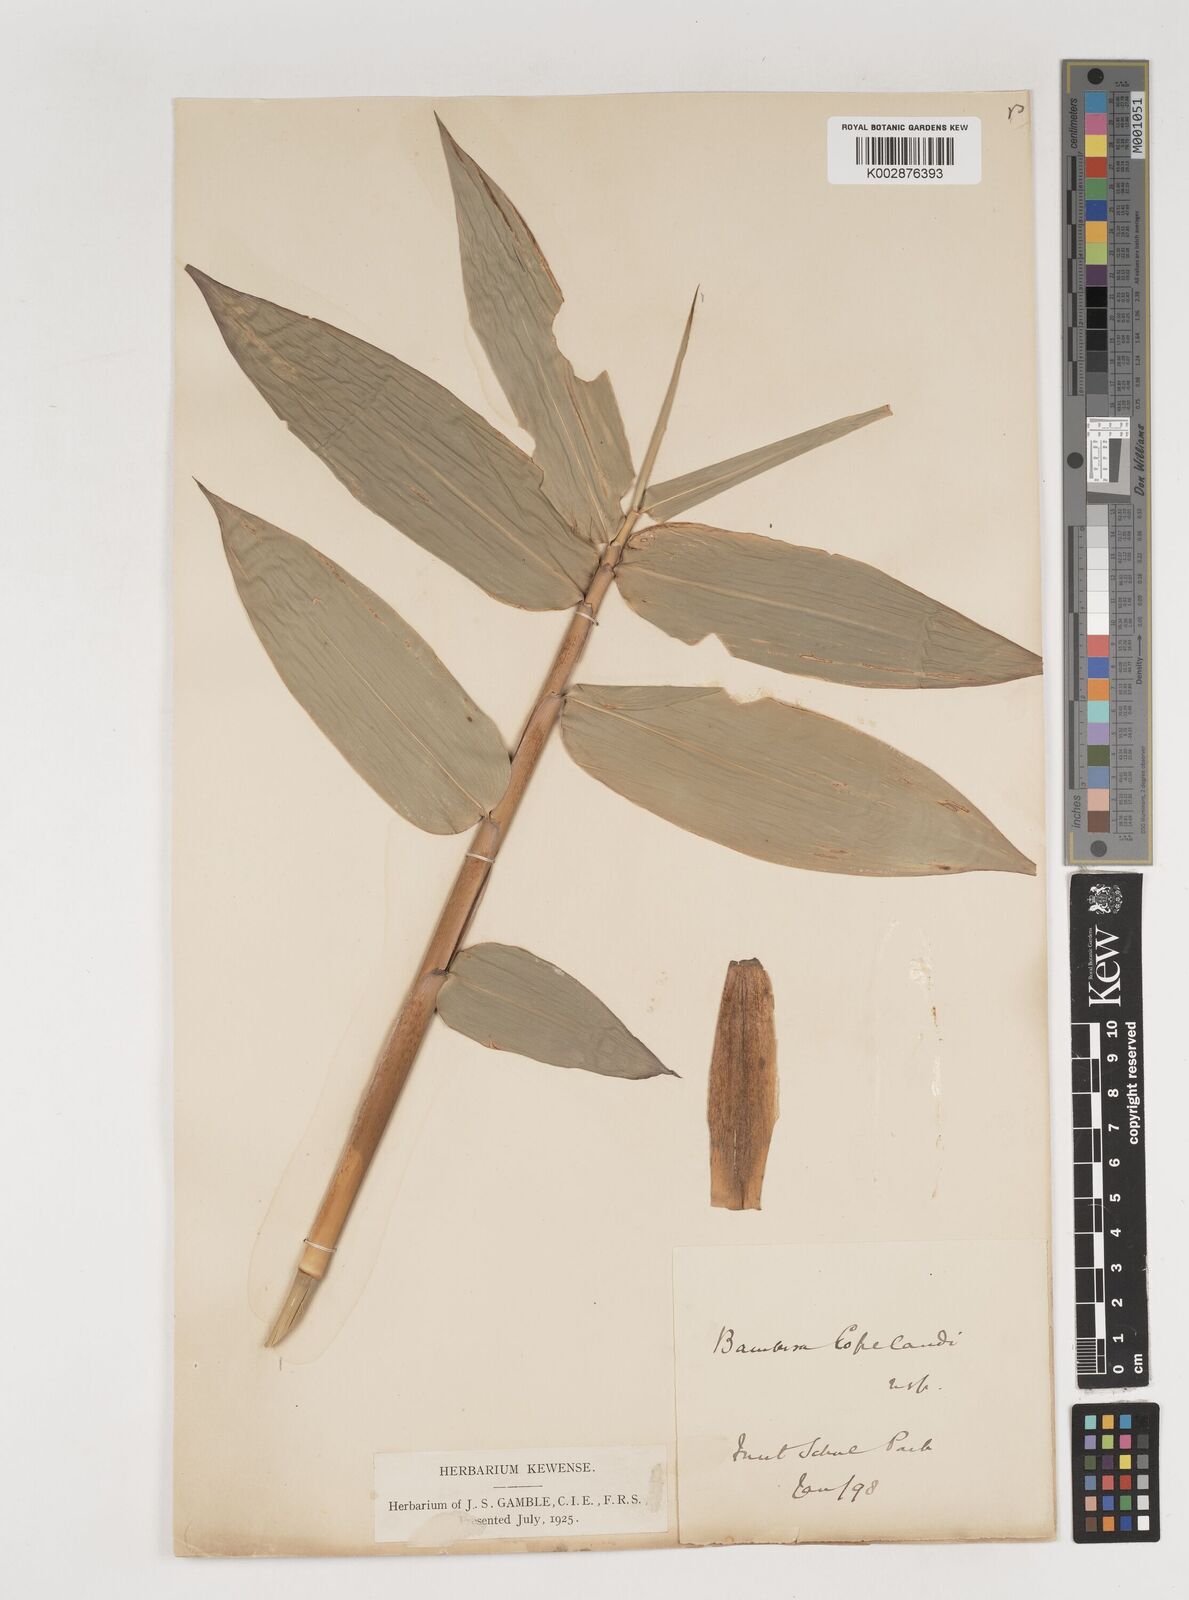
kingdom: Plantae
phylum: Tracheophyta
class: Liliopsida
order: Poales
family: Poaceae
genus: Bambusa
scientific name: Bambusa copelandii
